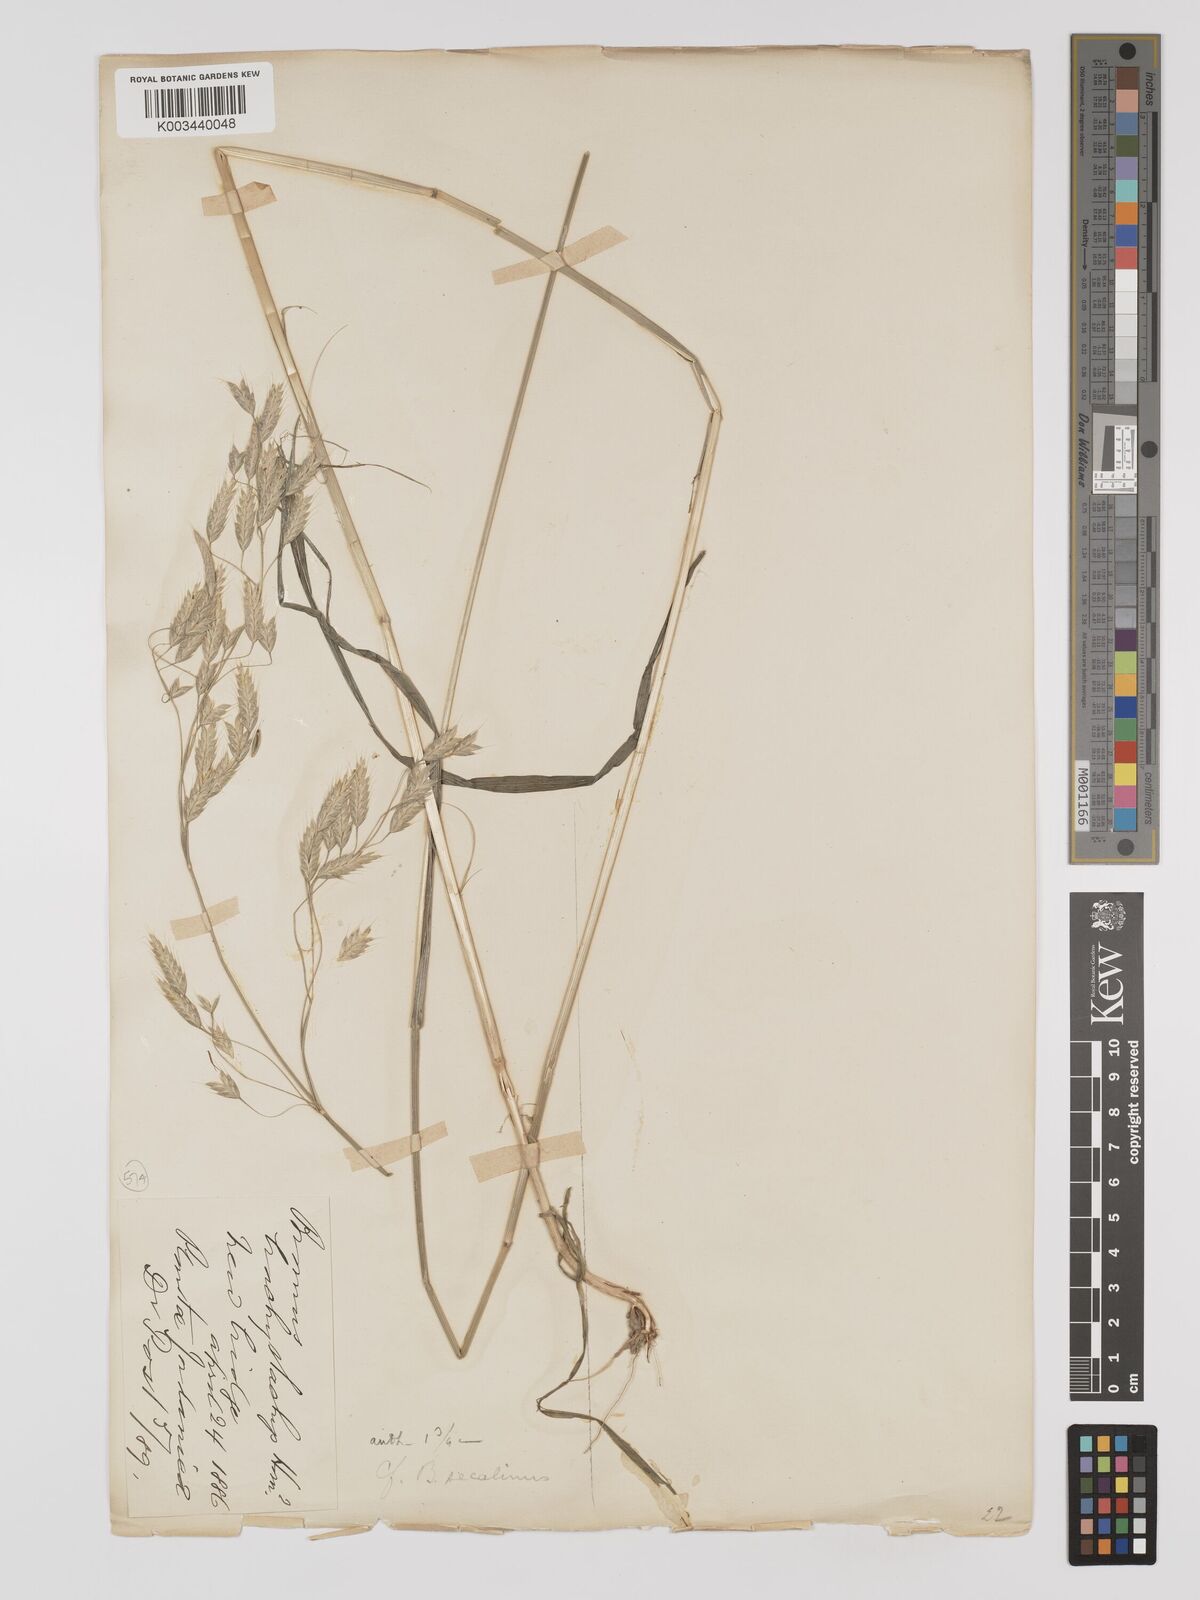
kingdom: Plantae
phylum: Tracheophyta
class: Liliopsida
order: Poales
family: Poaceae
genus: Bromus
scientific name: Bromus secalinus
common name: Rye brome
